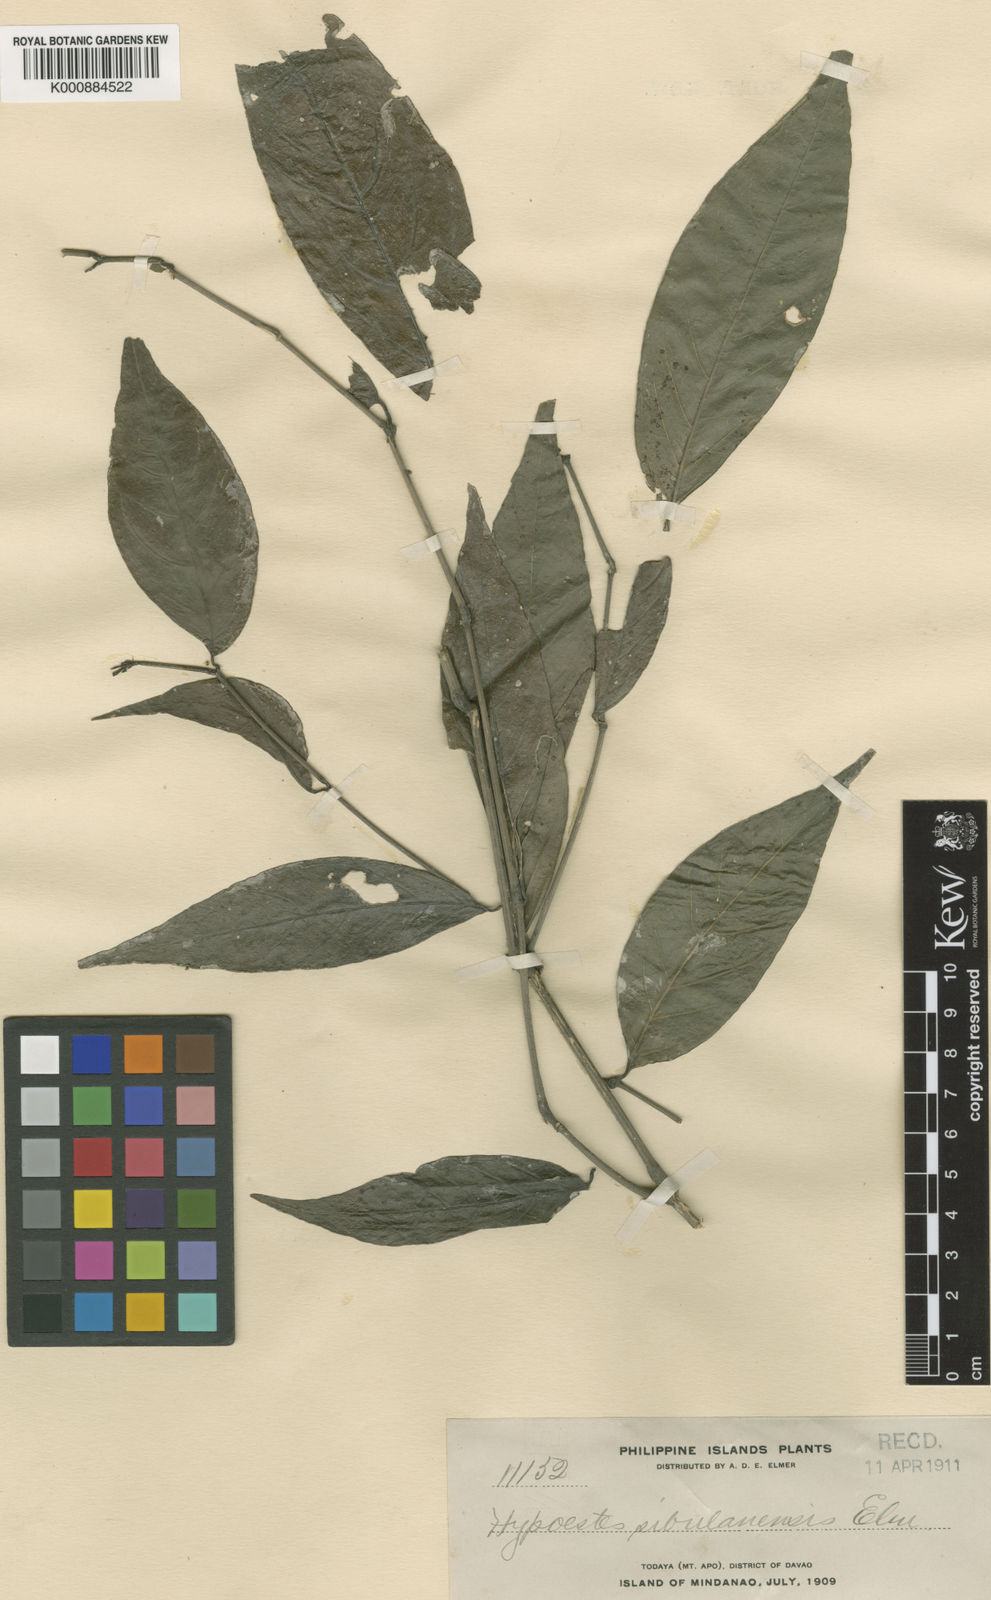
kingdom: Plantae
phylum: Tracheophyta
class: Magnoliopsida
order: Lamiales
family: Acanthaceae
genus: Strobilanthes
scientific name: Strobilanthes apoensis
